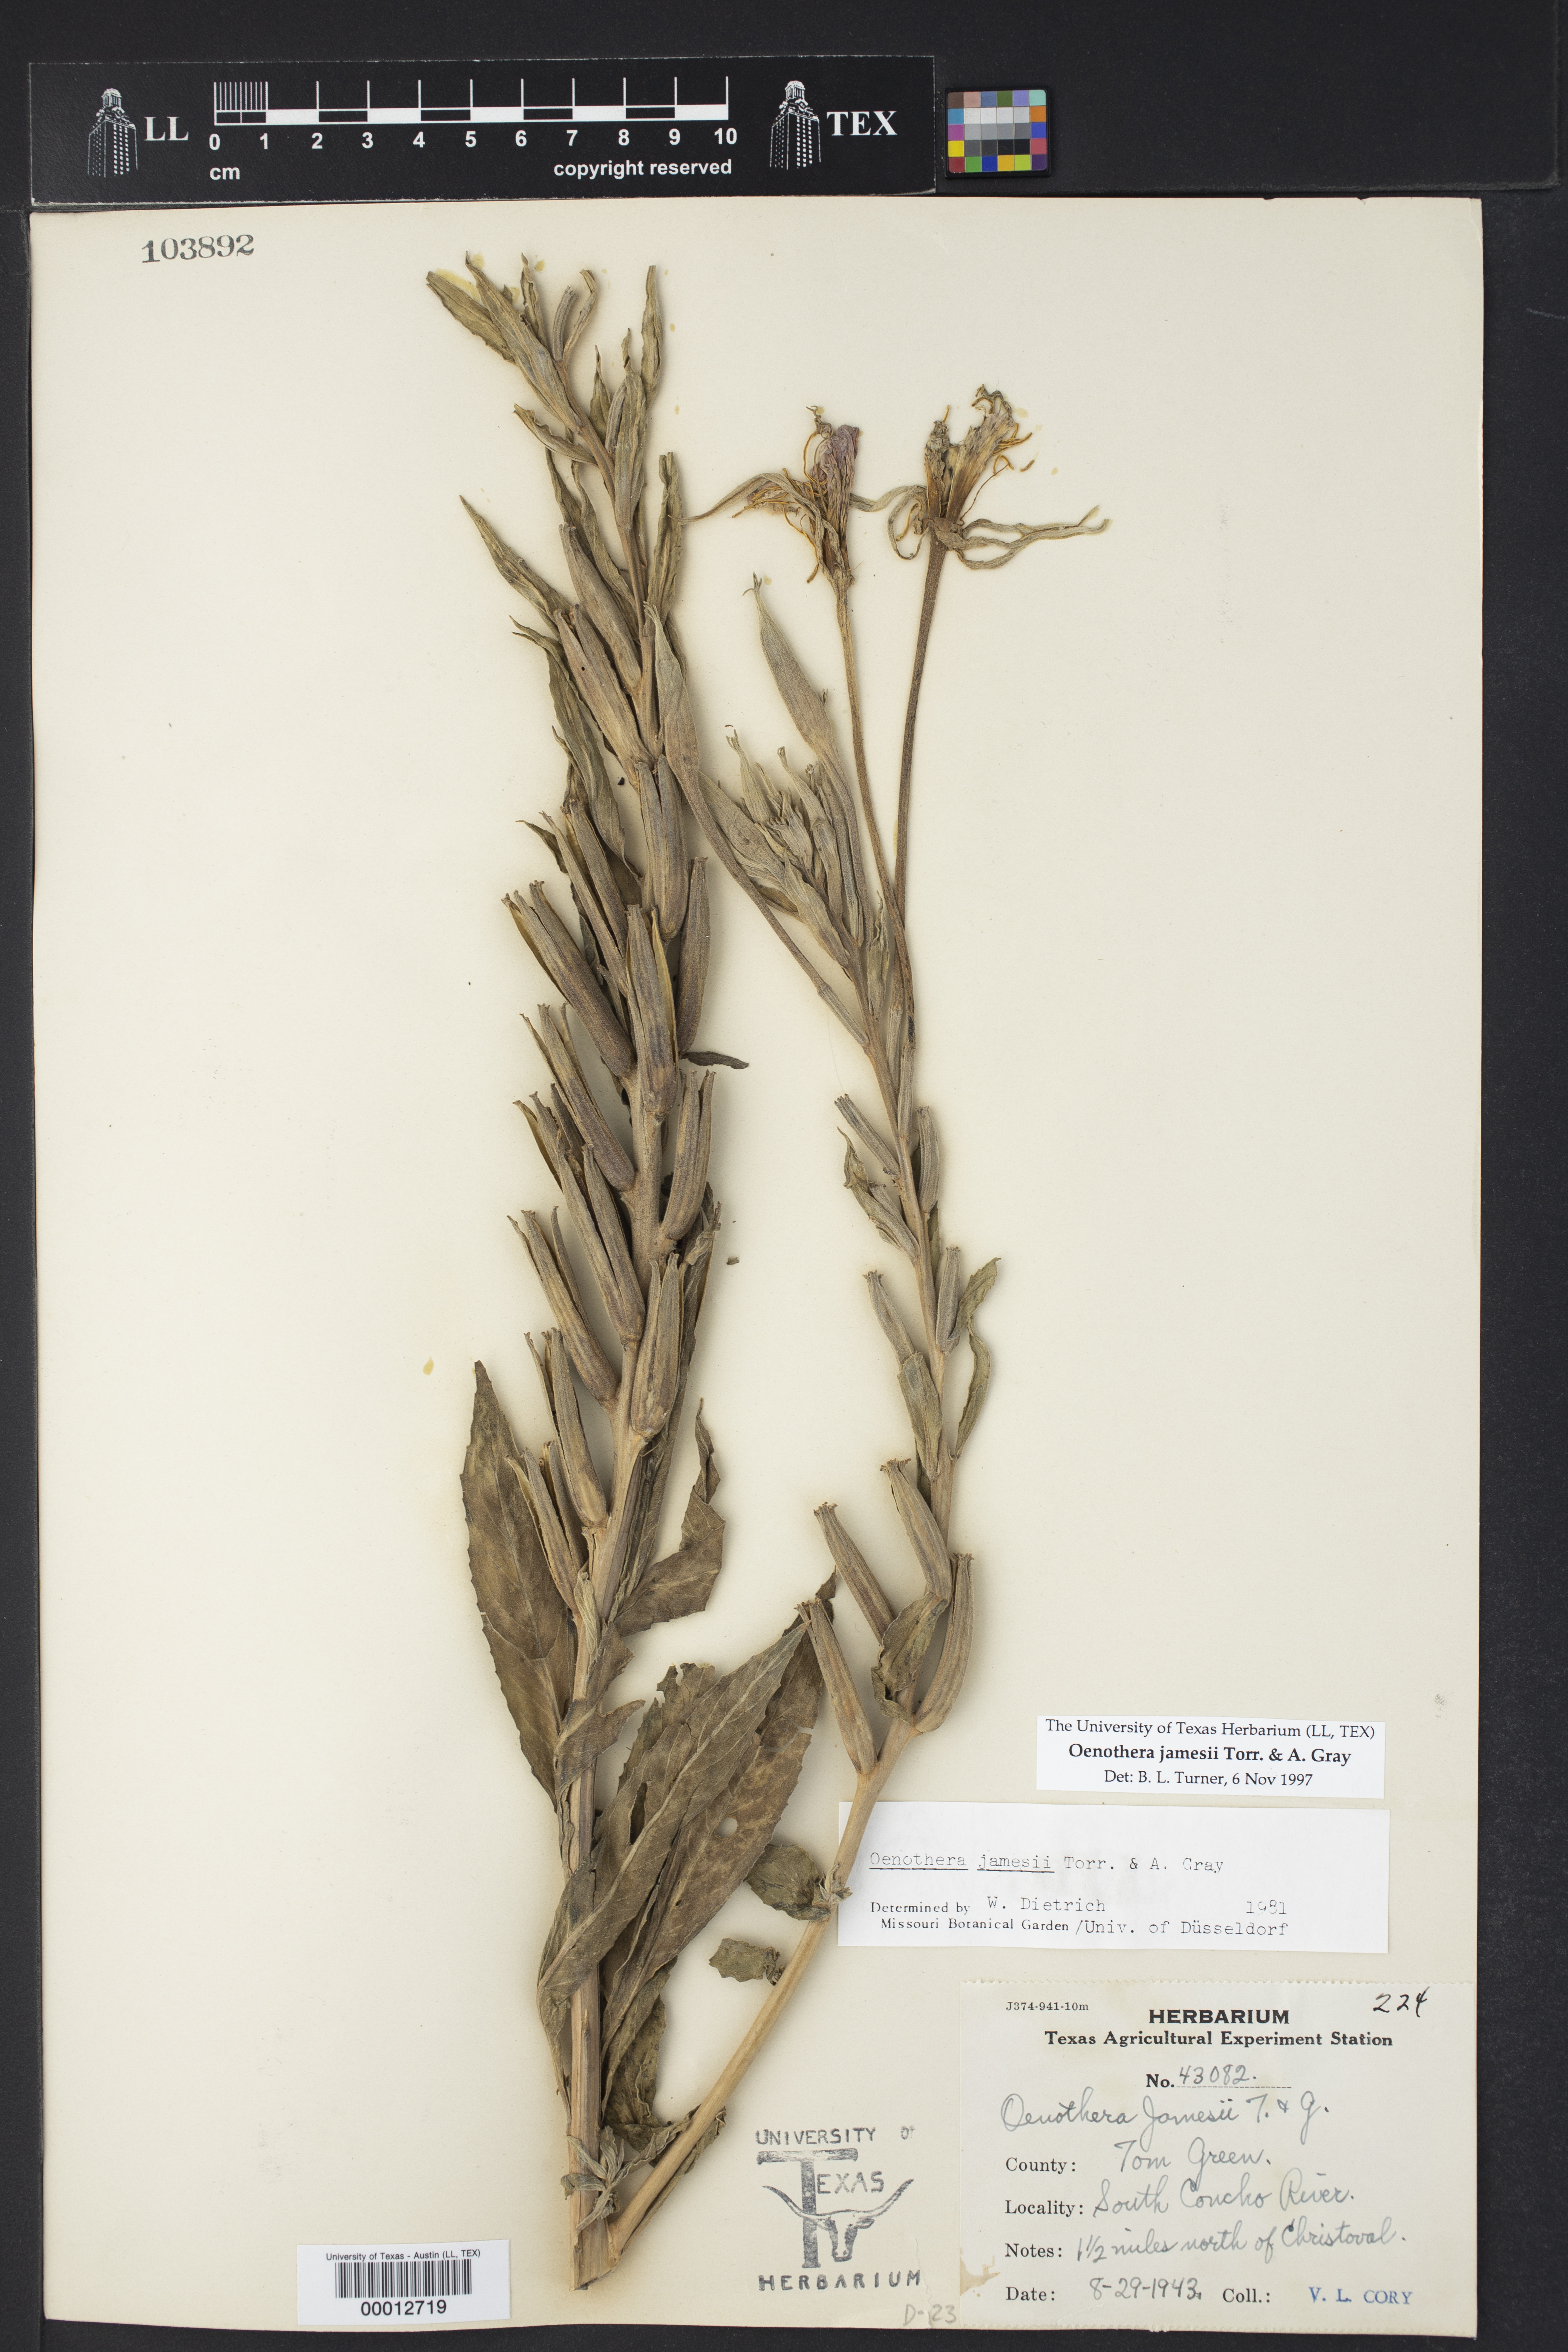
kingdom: Plantae
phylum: Tracheophyta
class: Magnoliopsida
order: Myrtales
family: Onagraceae
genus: Oenothera
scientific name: Oenothera jamesii
